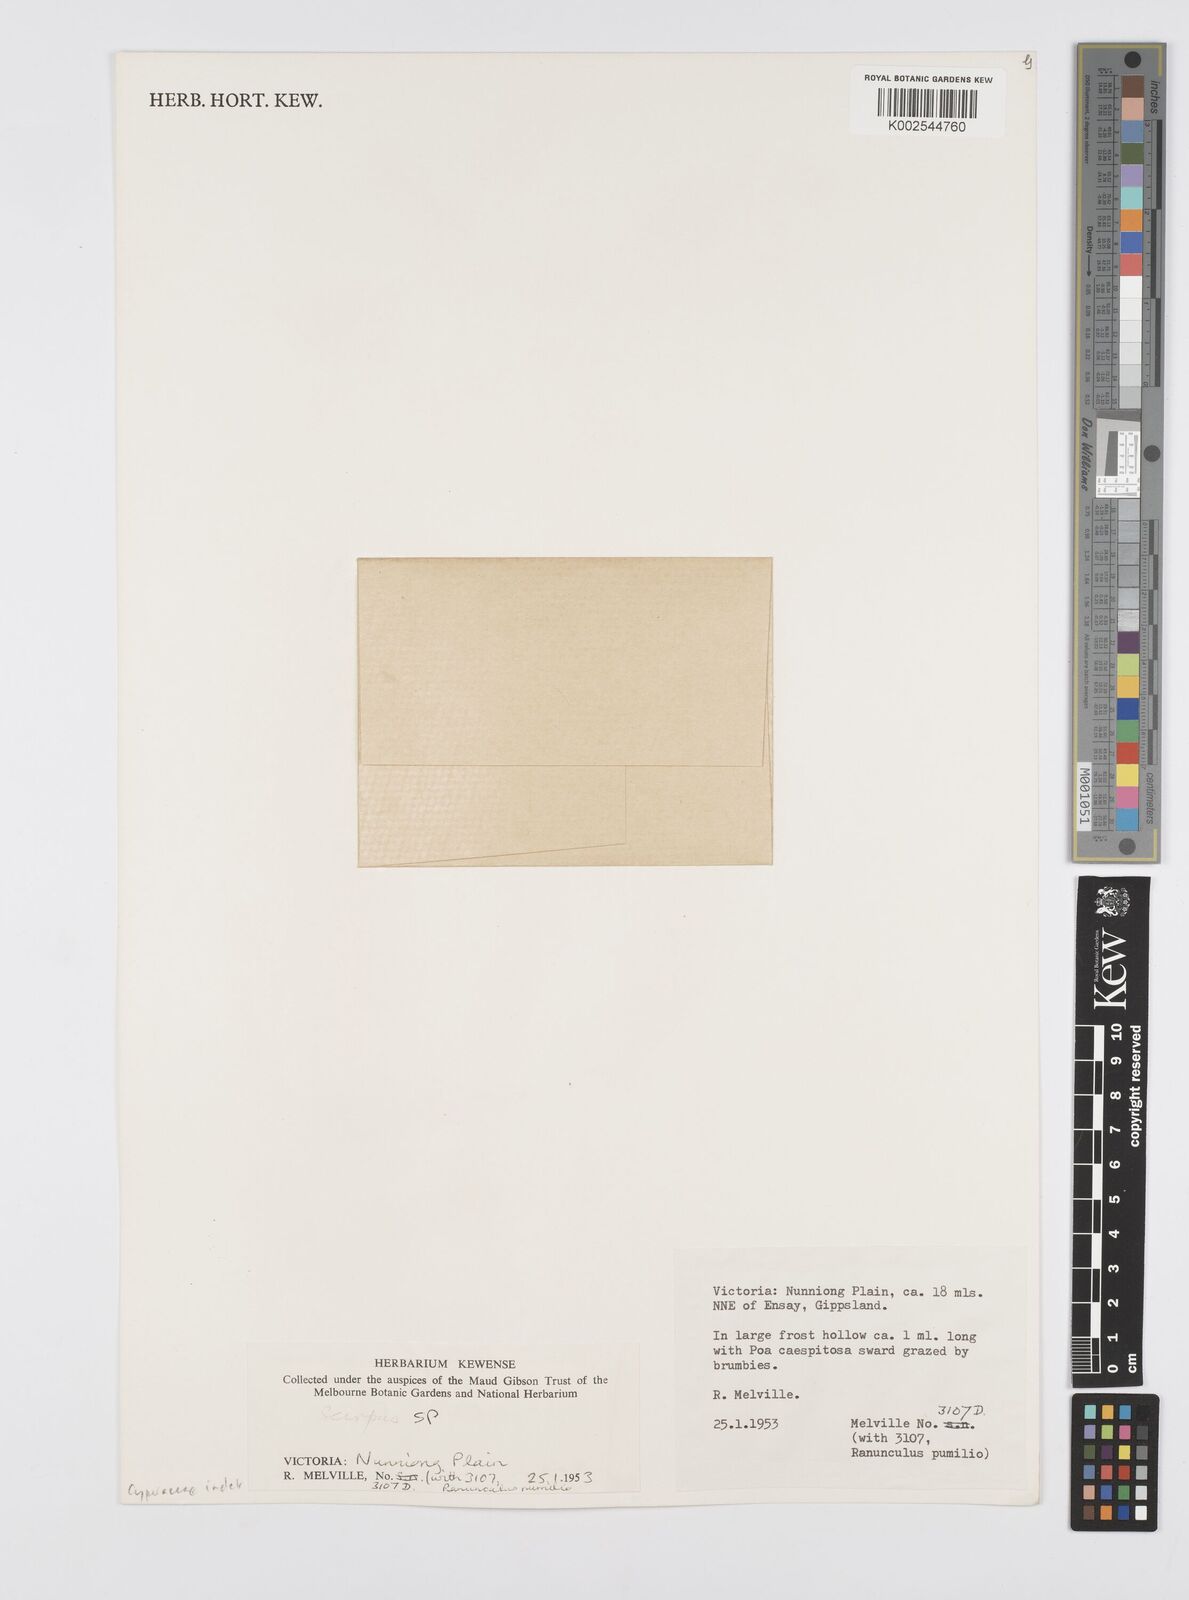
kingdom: Plantae
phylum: Tracheophyta
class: Liliopsida
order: Poales
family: Cyperaceae
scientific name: Cyperaceae
